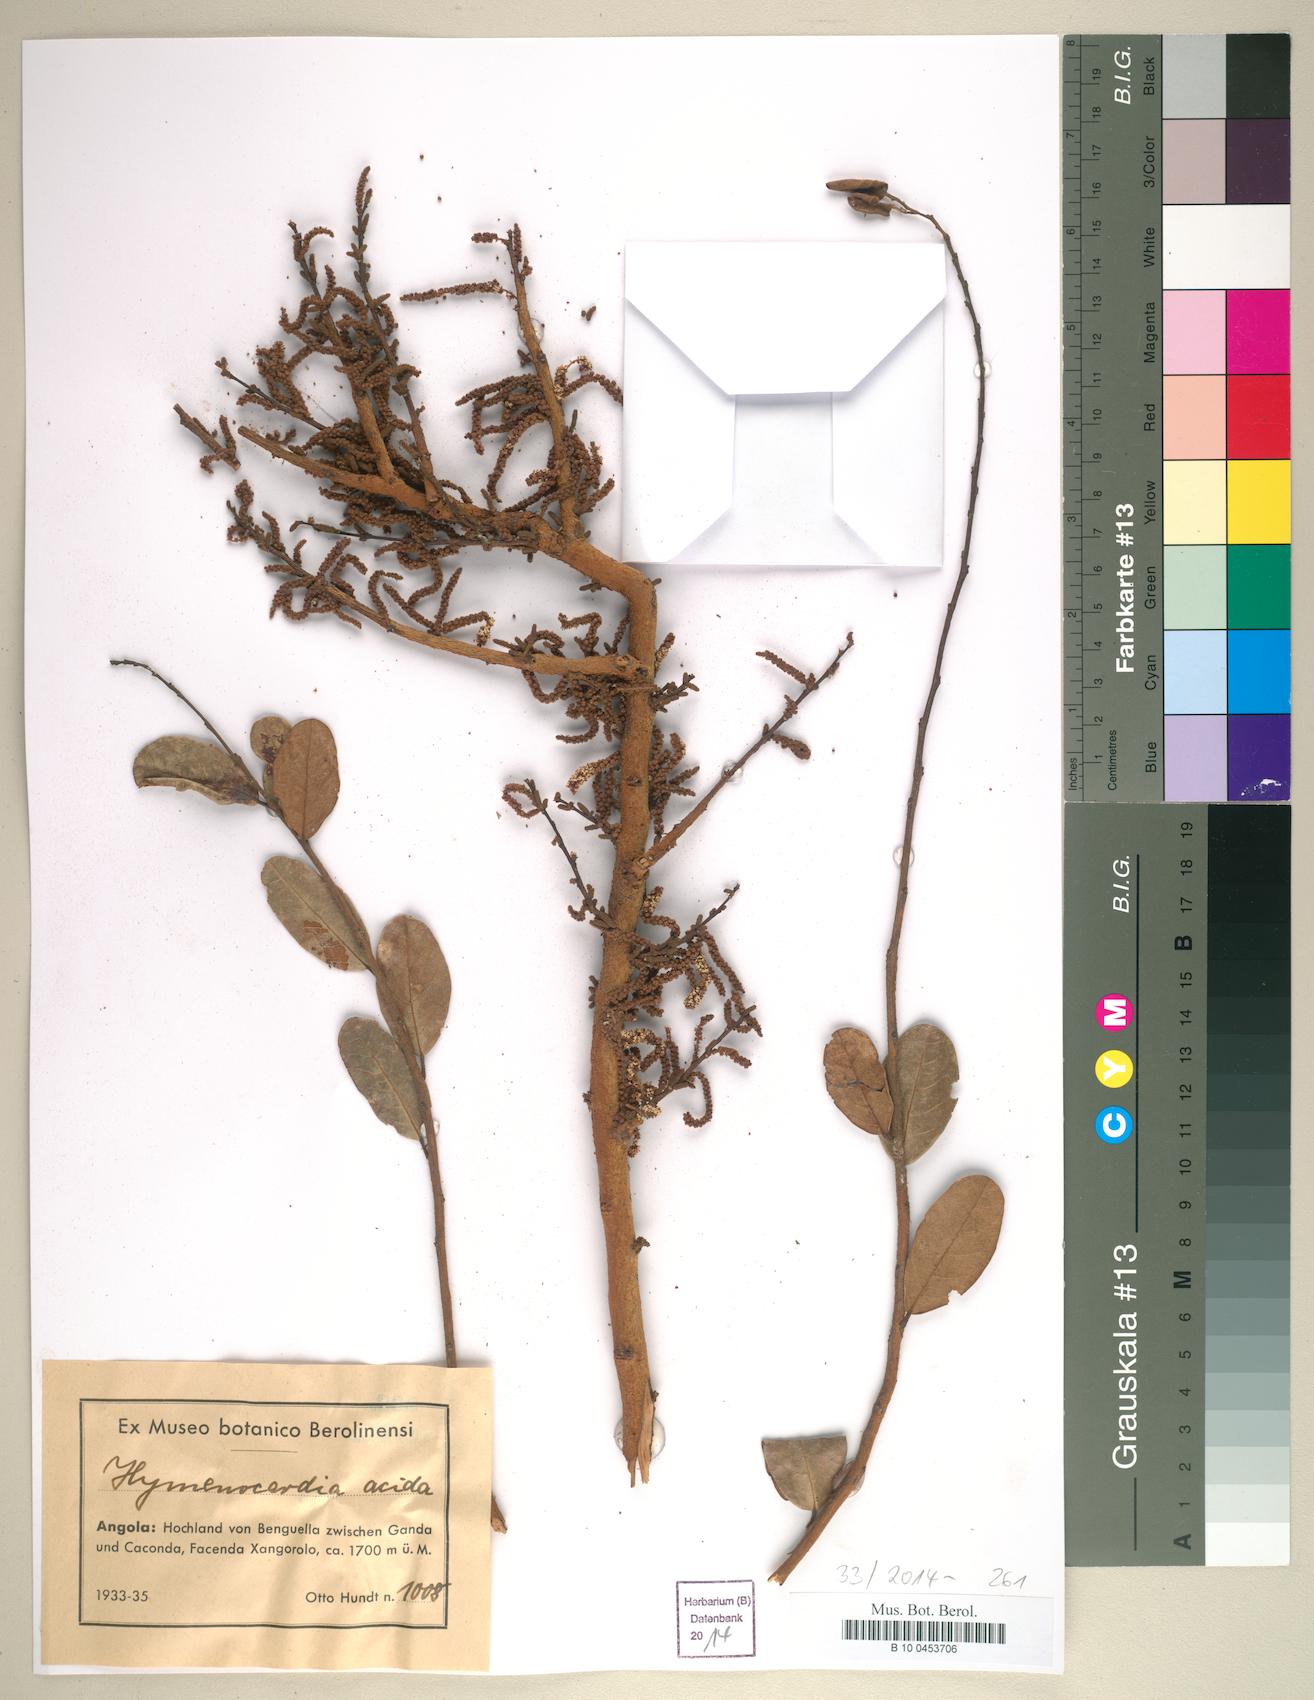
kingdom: Plantae
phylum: Tracheophyta
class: Magnoliopsida
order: Malpighiales
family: Phyllanthaceae
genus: Hymenocardia
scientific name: Hymenocardia acida
